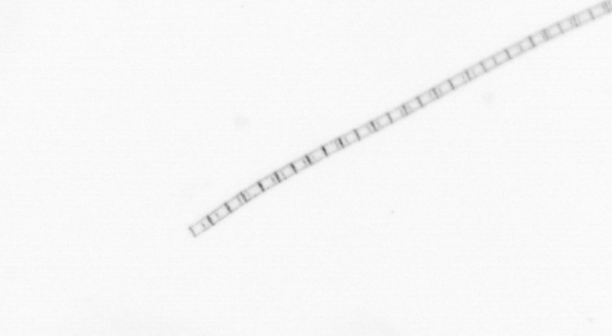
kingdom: Chromista
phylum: Ochrophyta
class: Bacillariophyceae
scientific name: Bacillariophyceae
